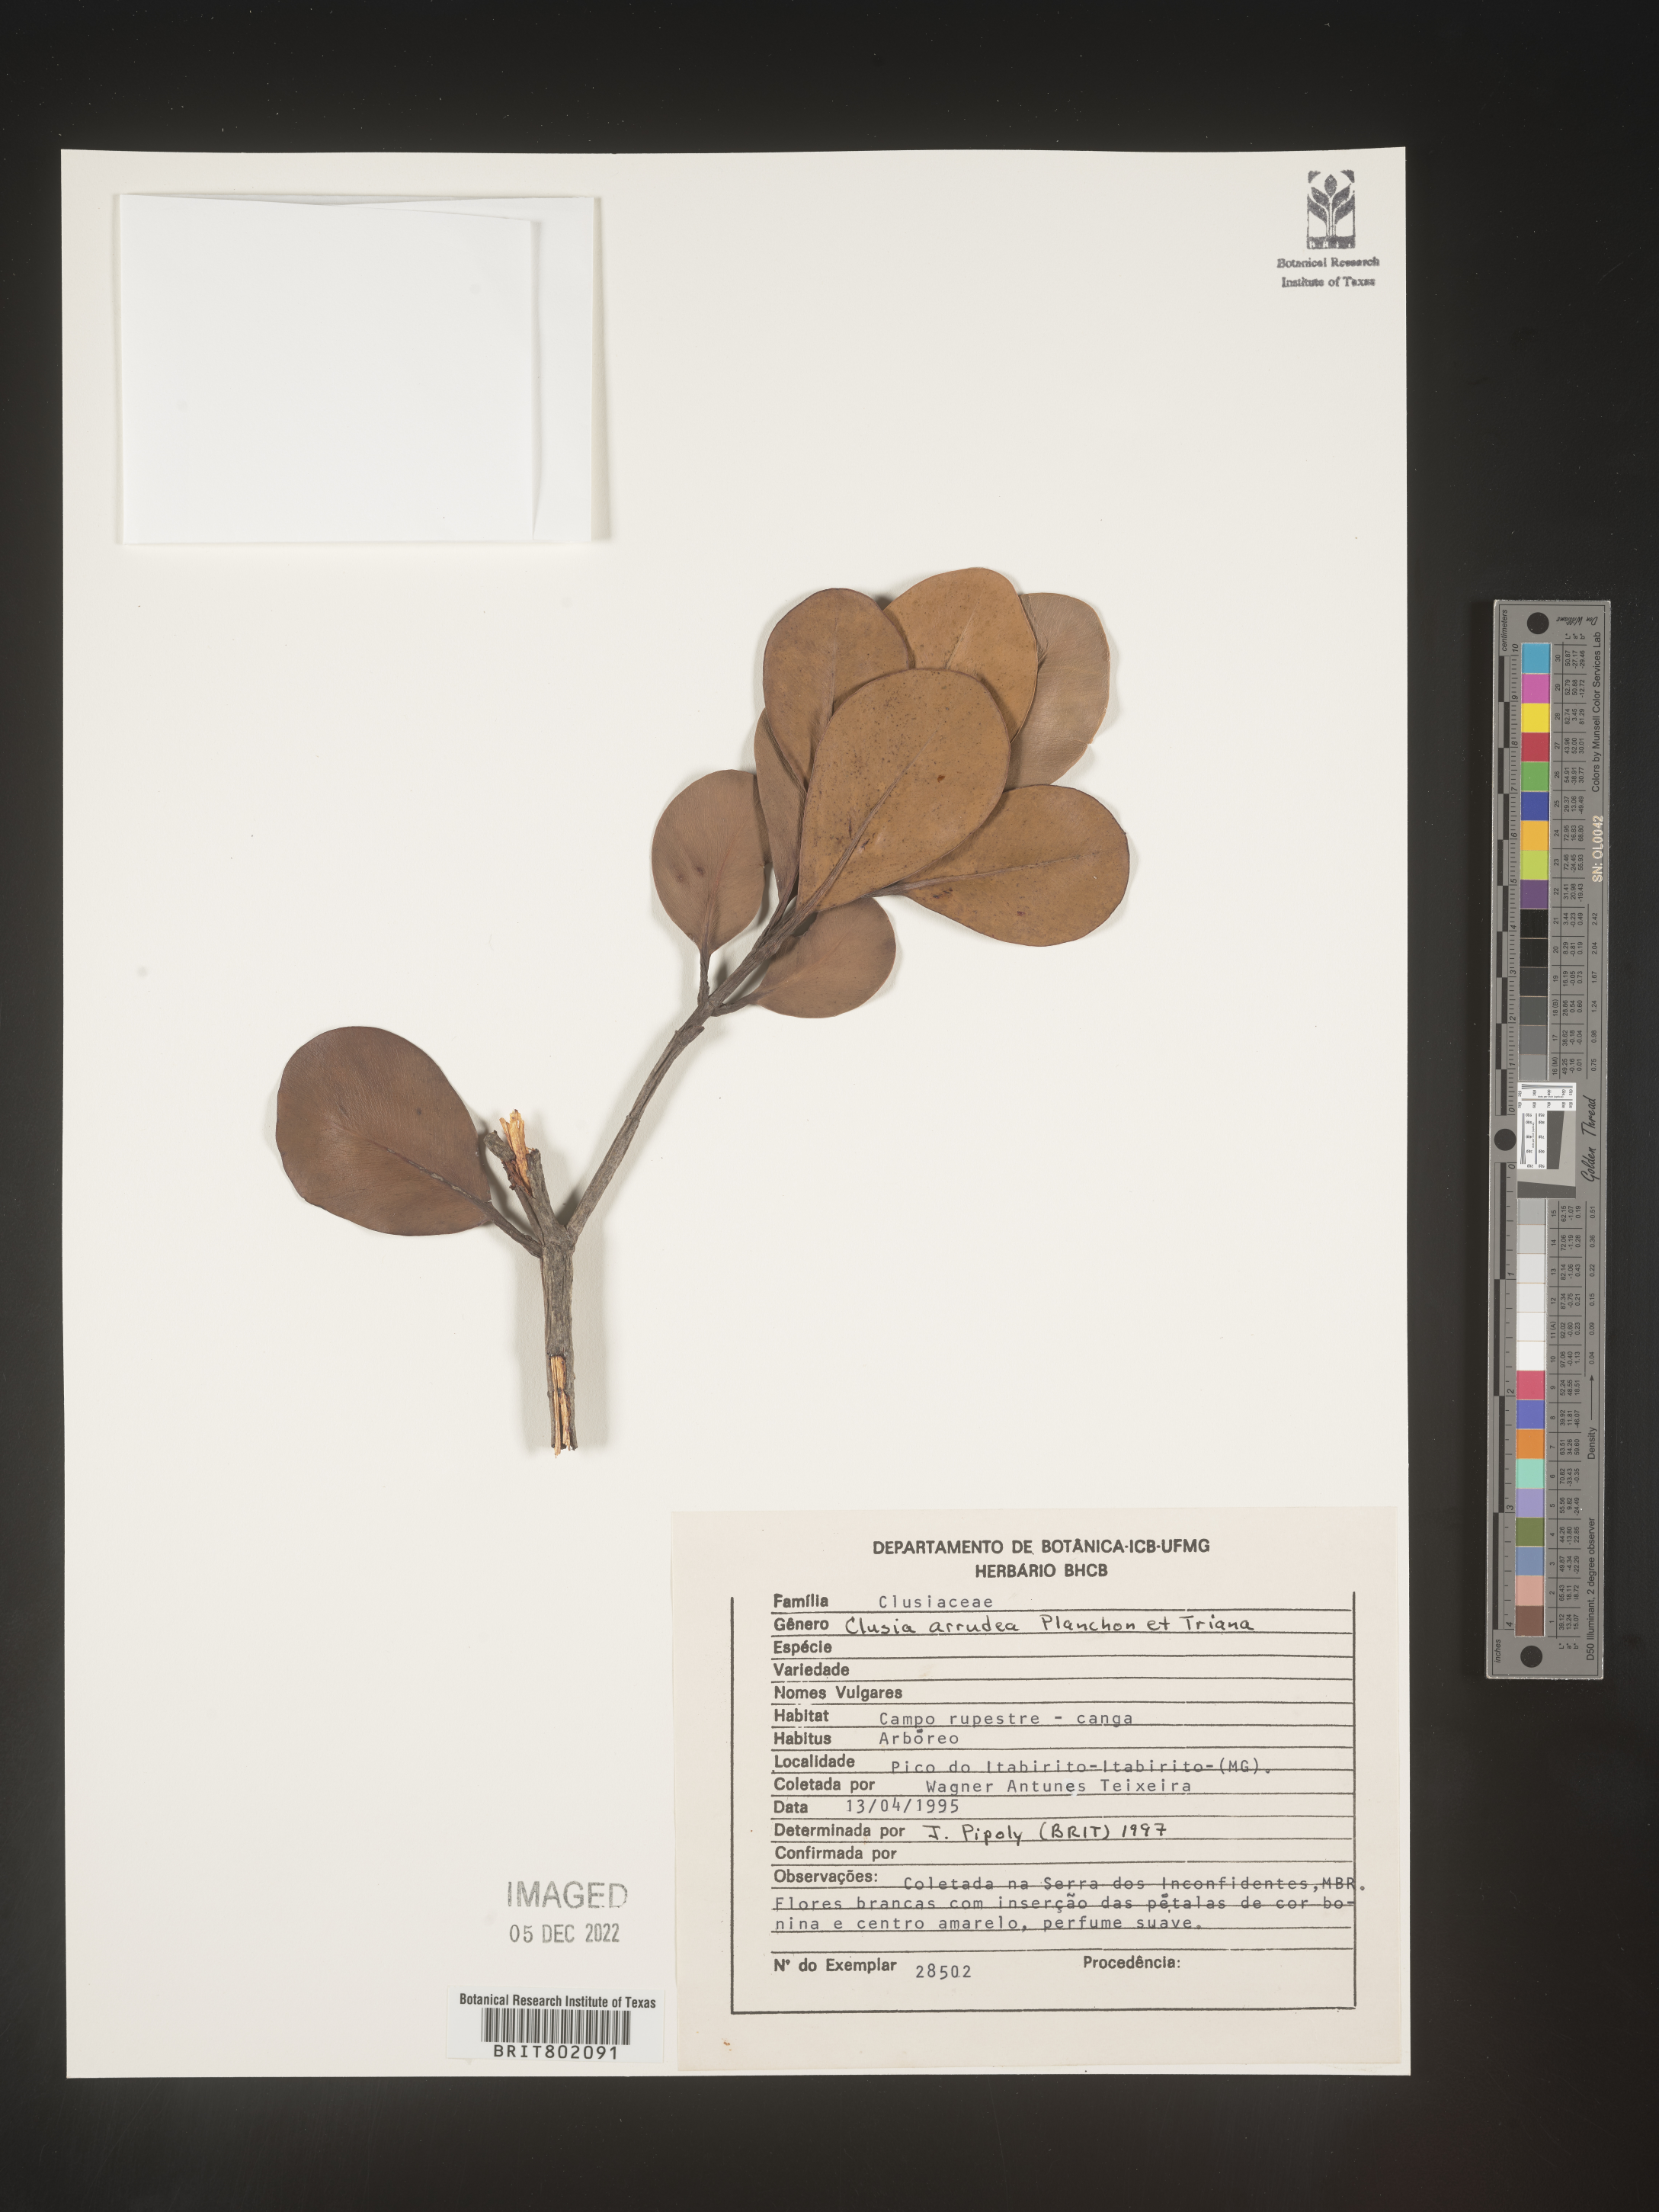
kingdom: Plantae
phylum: Tracheophyta
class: Magnoliopsida
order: Malpighiales
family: Clusiaceae
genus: Clusia
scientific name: Clusia mexiae
